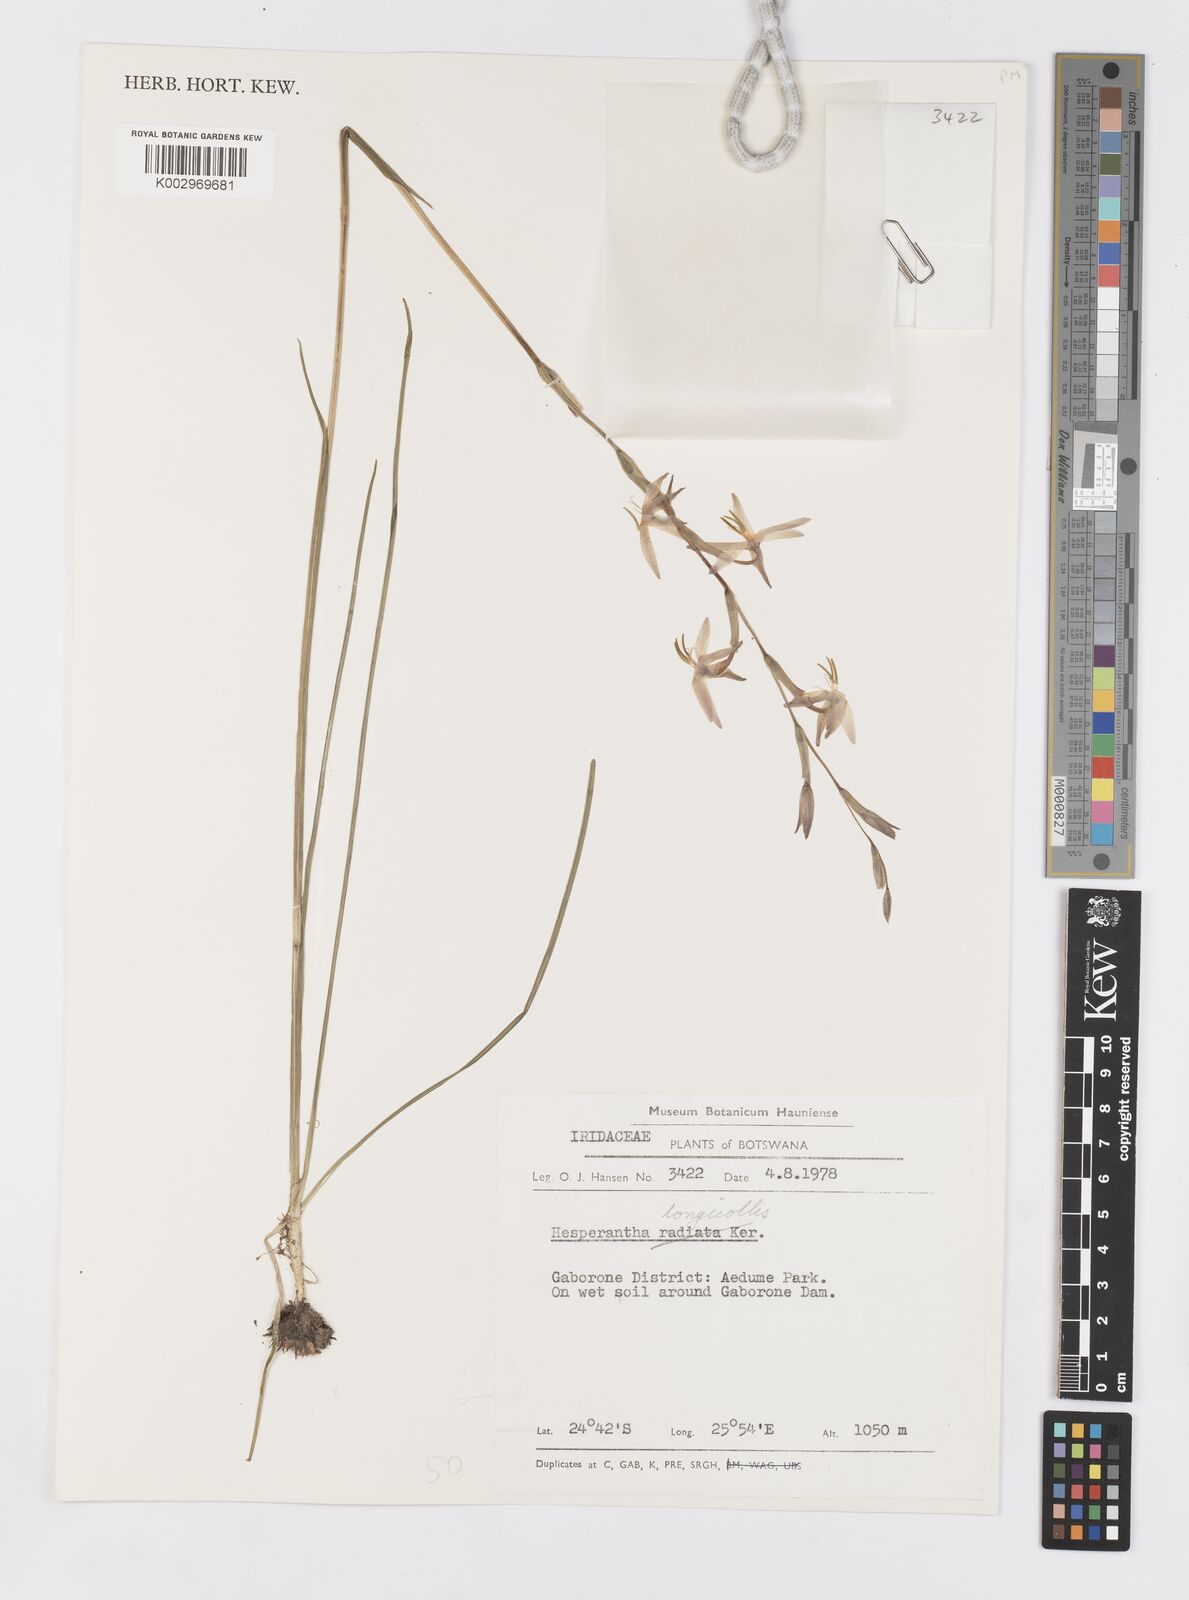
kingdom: Plantae
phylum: Tracheophyta
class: Liliopsida
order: Asparagales
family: Iridaceae
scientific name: Iridaceae
